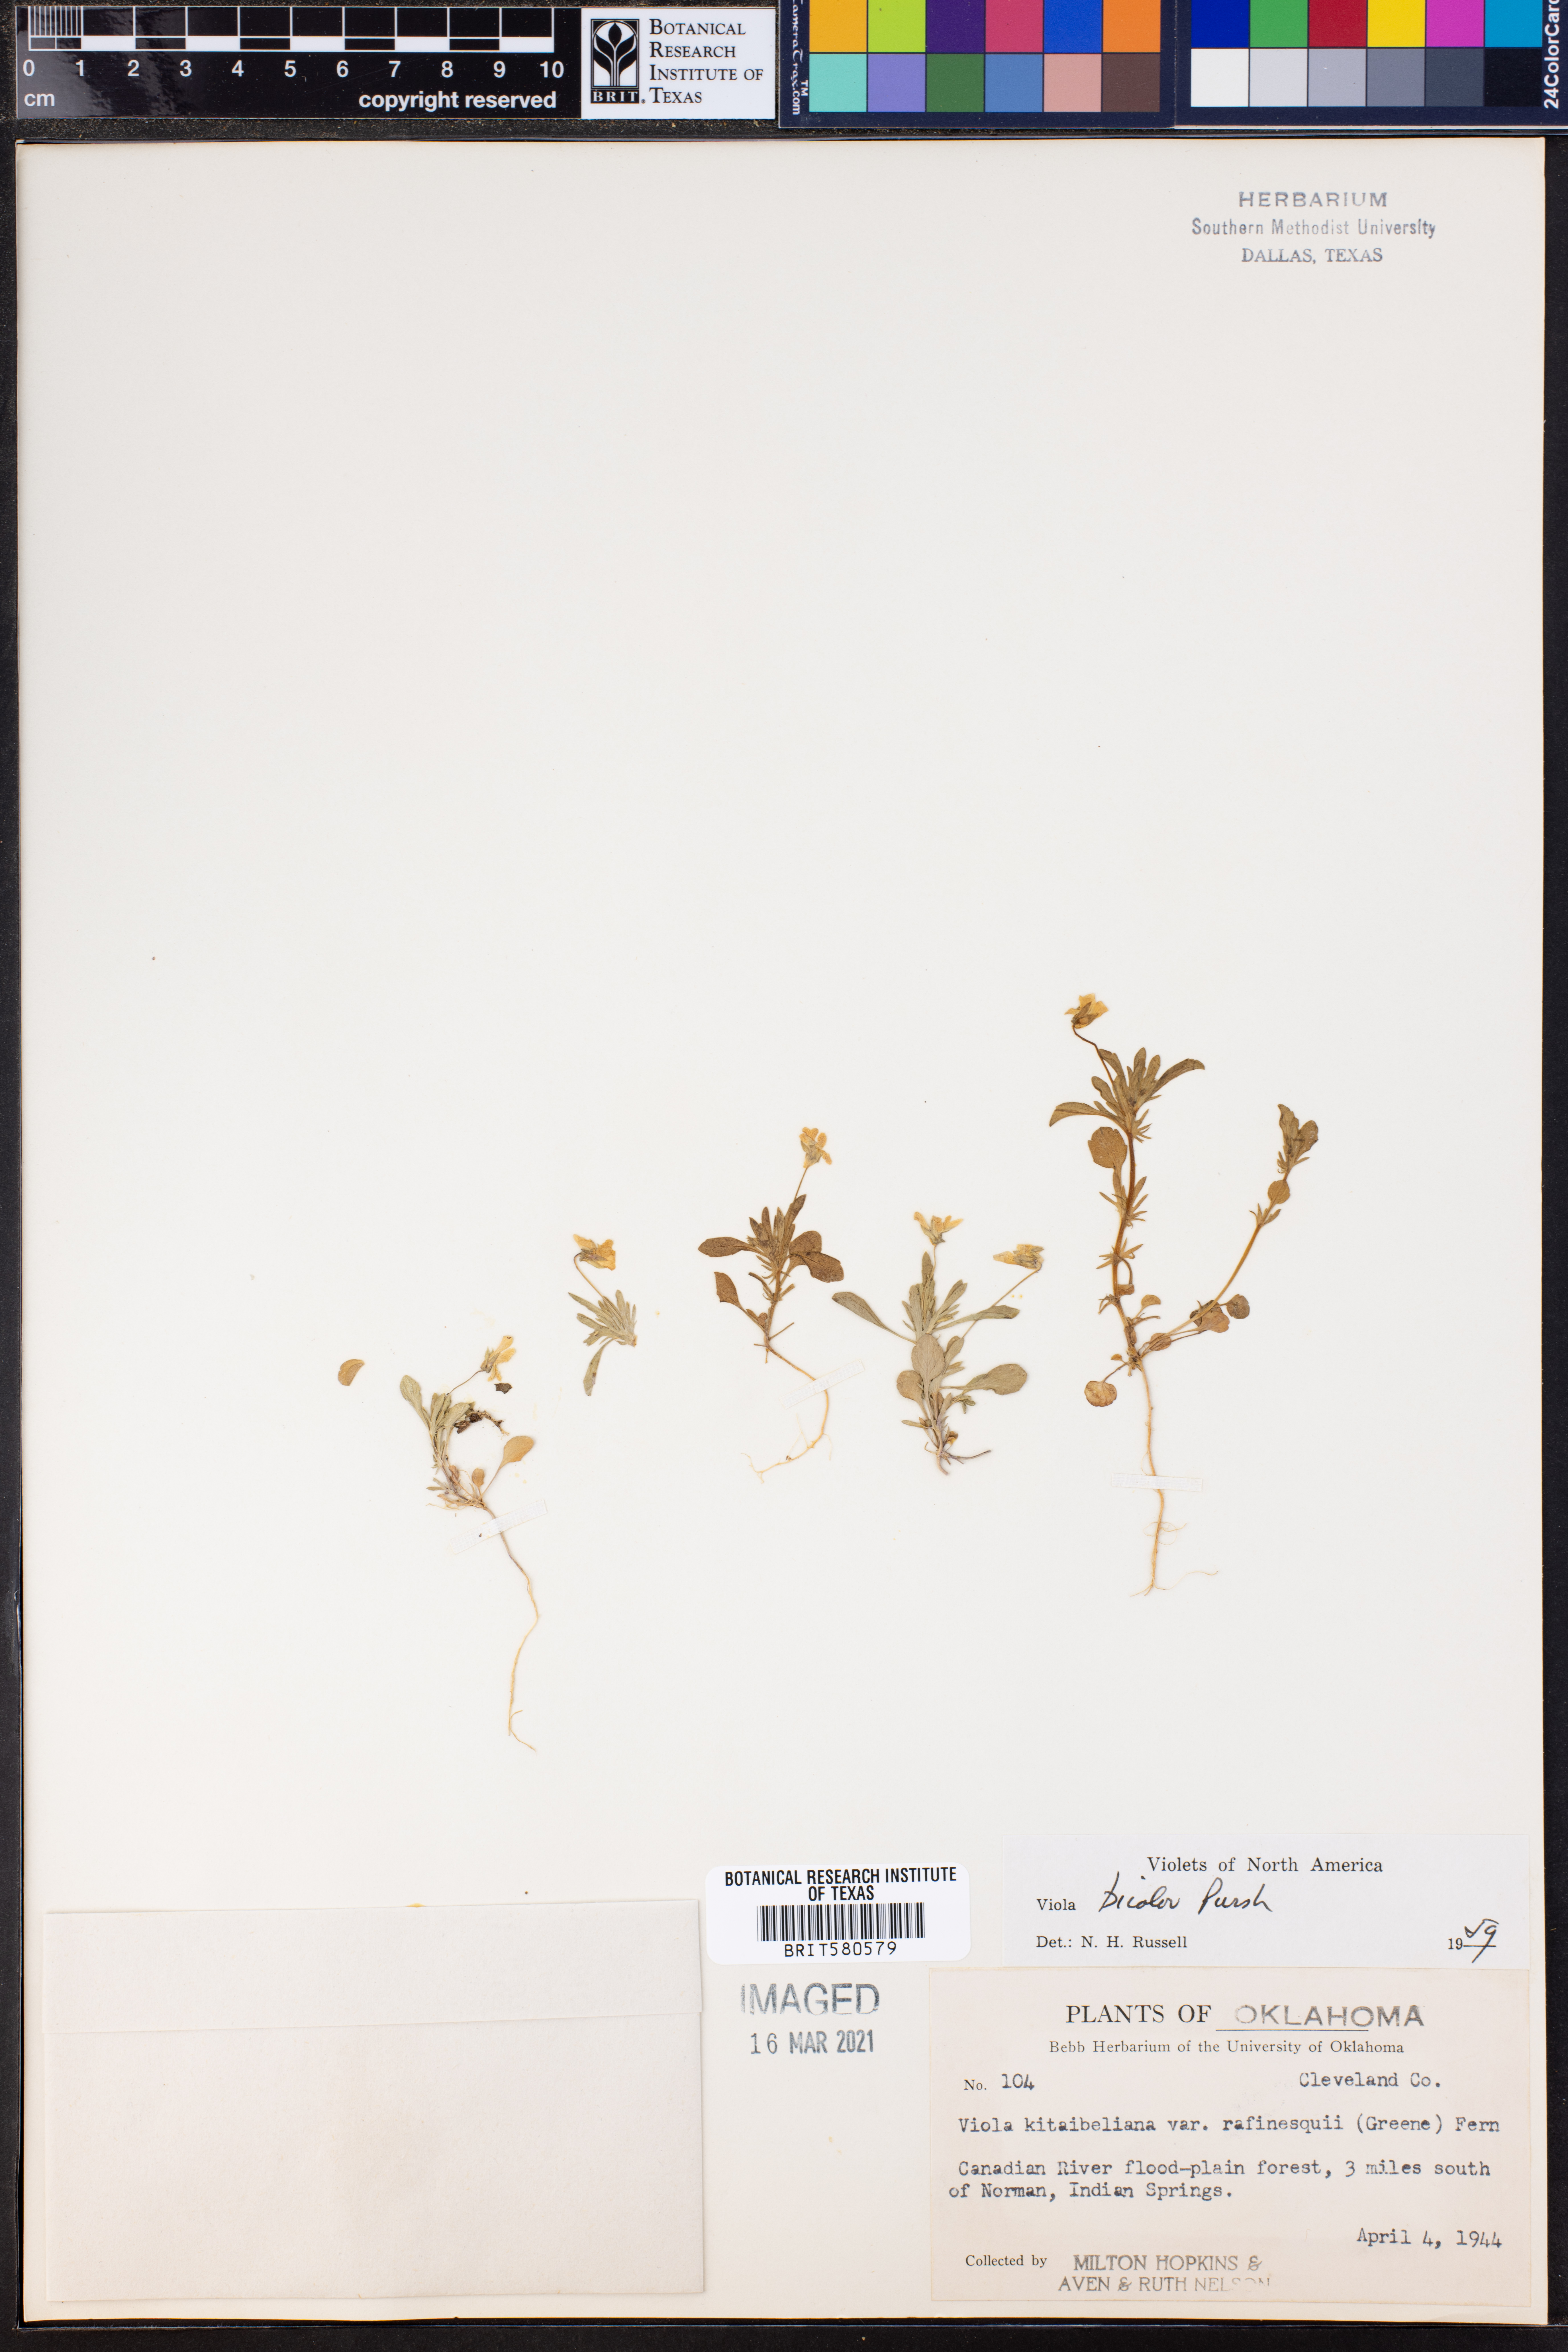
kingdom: Plantae
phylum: Tracheophyta
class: Magnoliopsida
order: Malpighiales
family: Violaceae
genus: Viola
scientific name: Viola rafinesquei
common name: American field pansy
